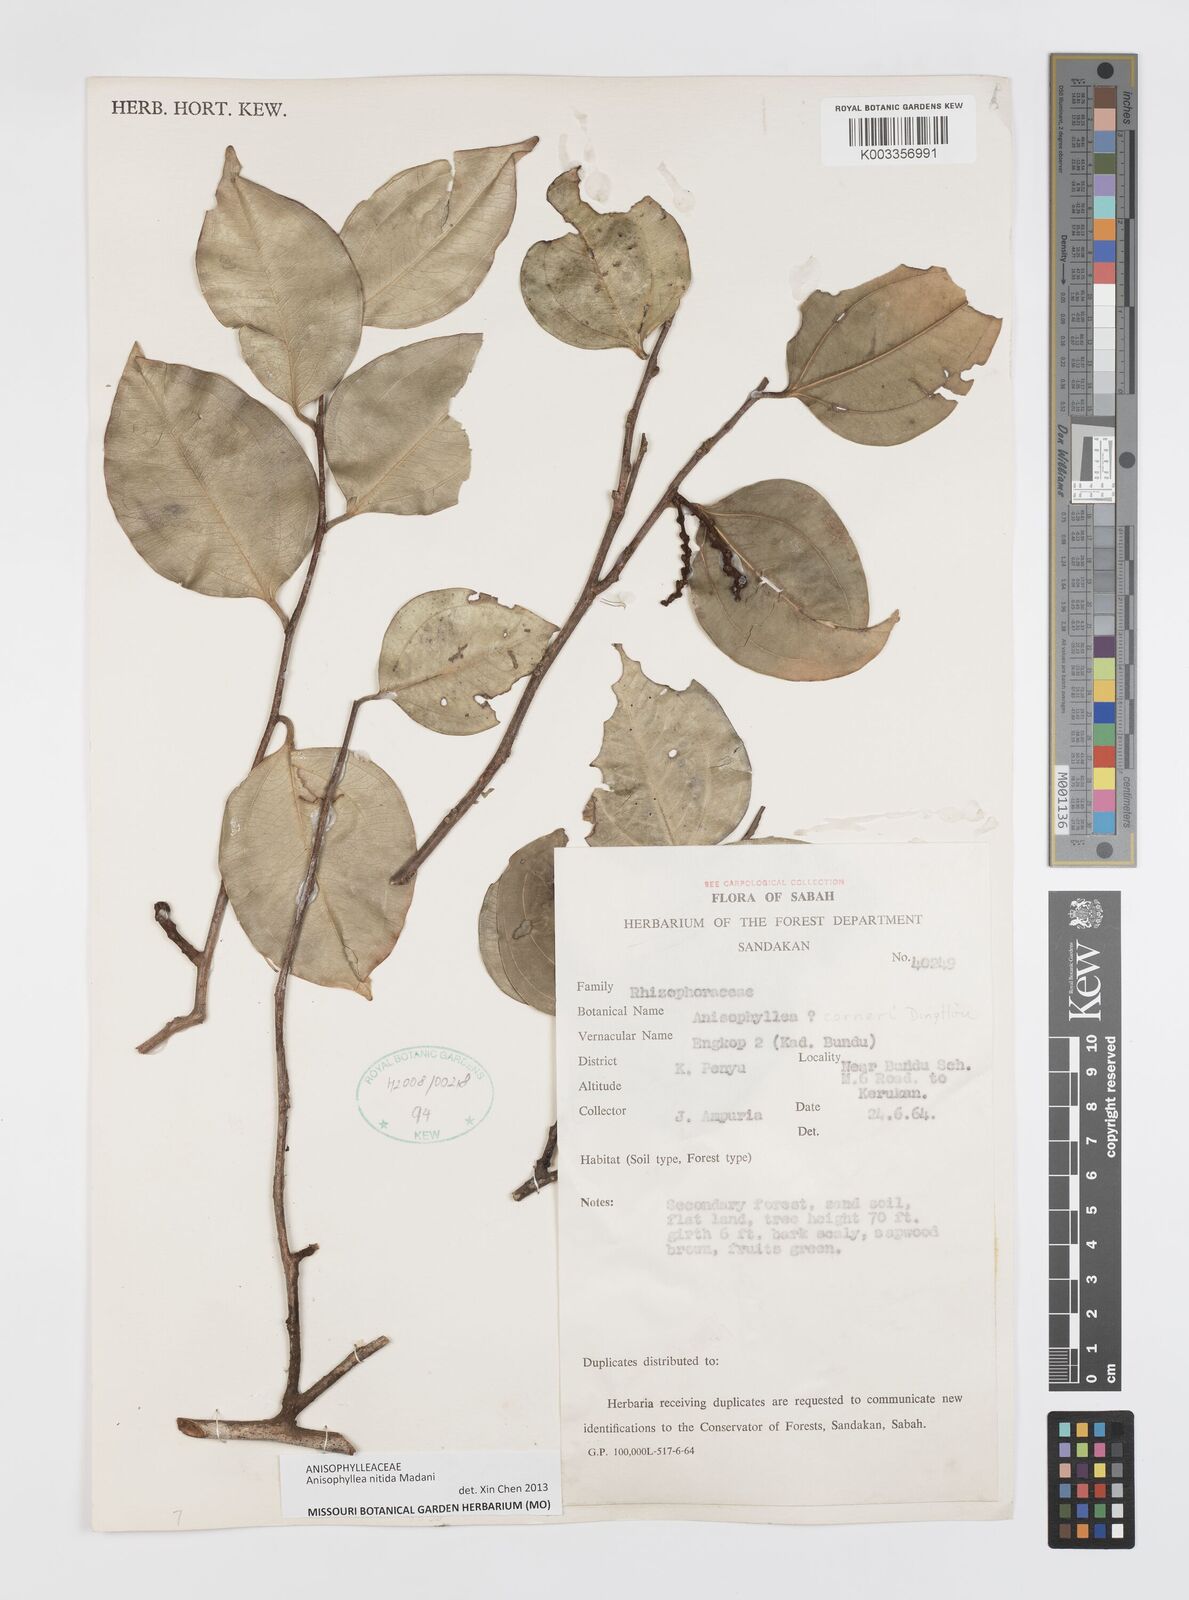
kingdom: Plantae
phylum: Tracheophyta
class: Magnoliopsida
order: Cucurbitales
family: Anisophylleaceae
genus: Anisophyllea
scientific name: Anisophyllea nitida
